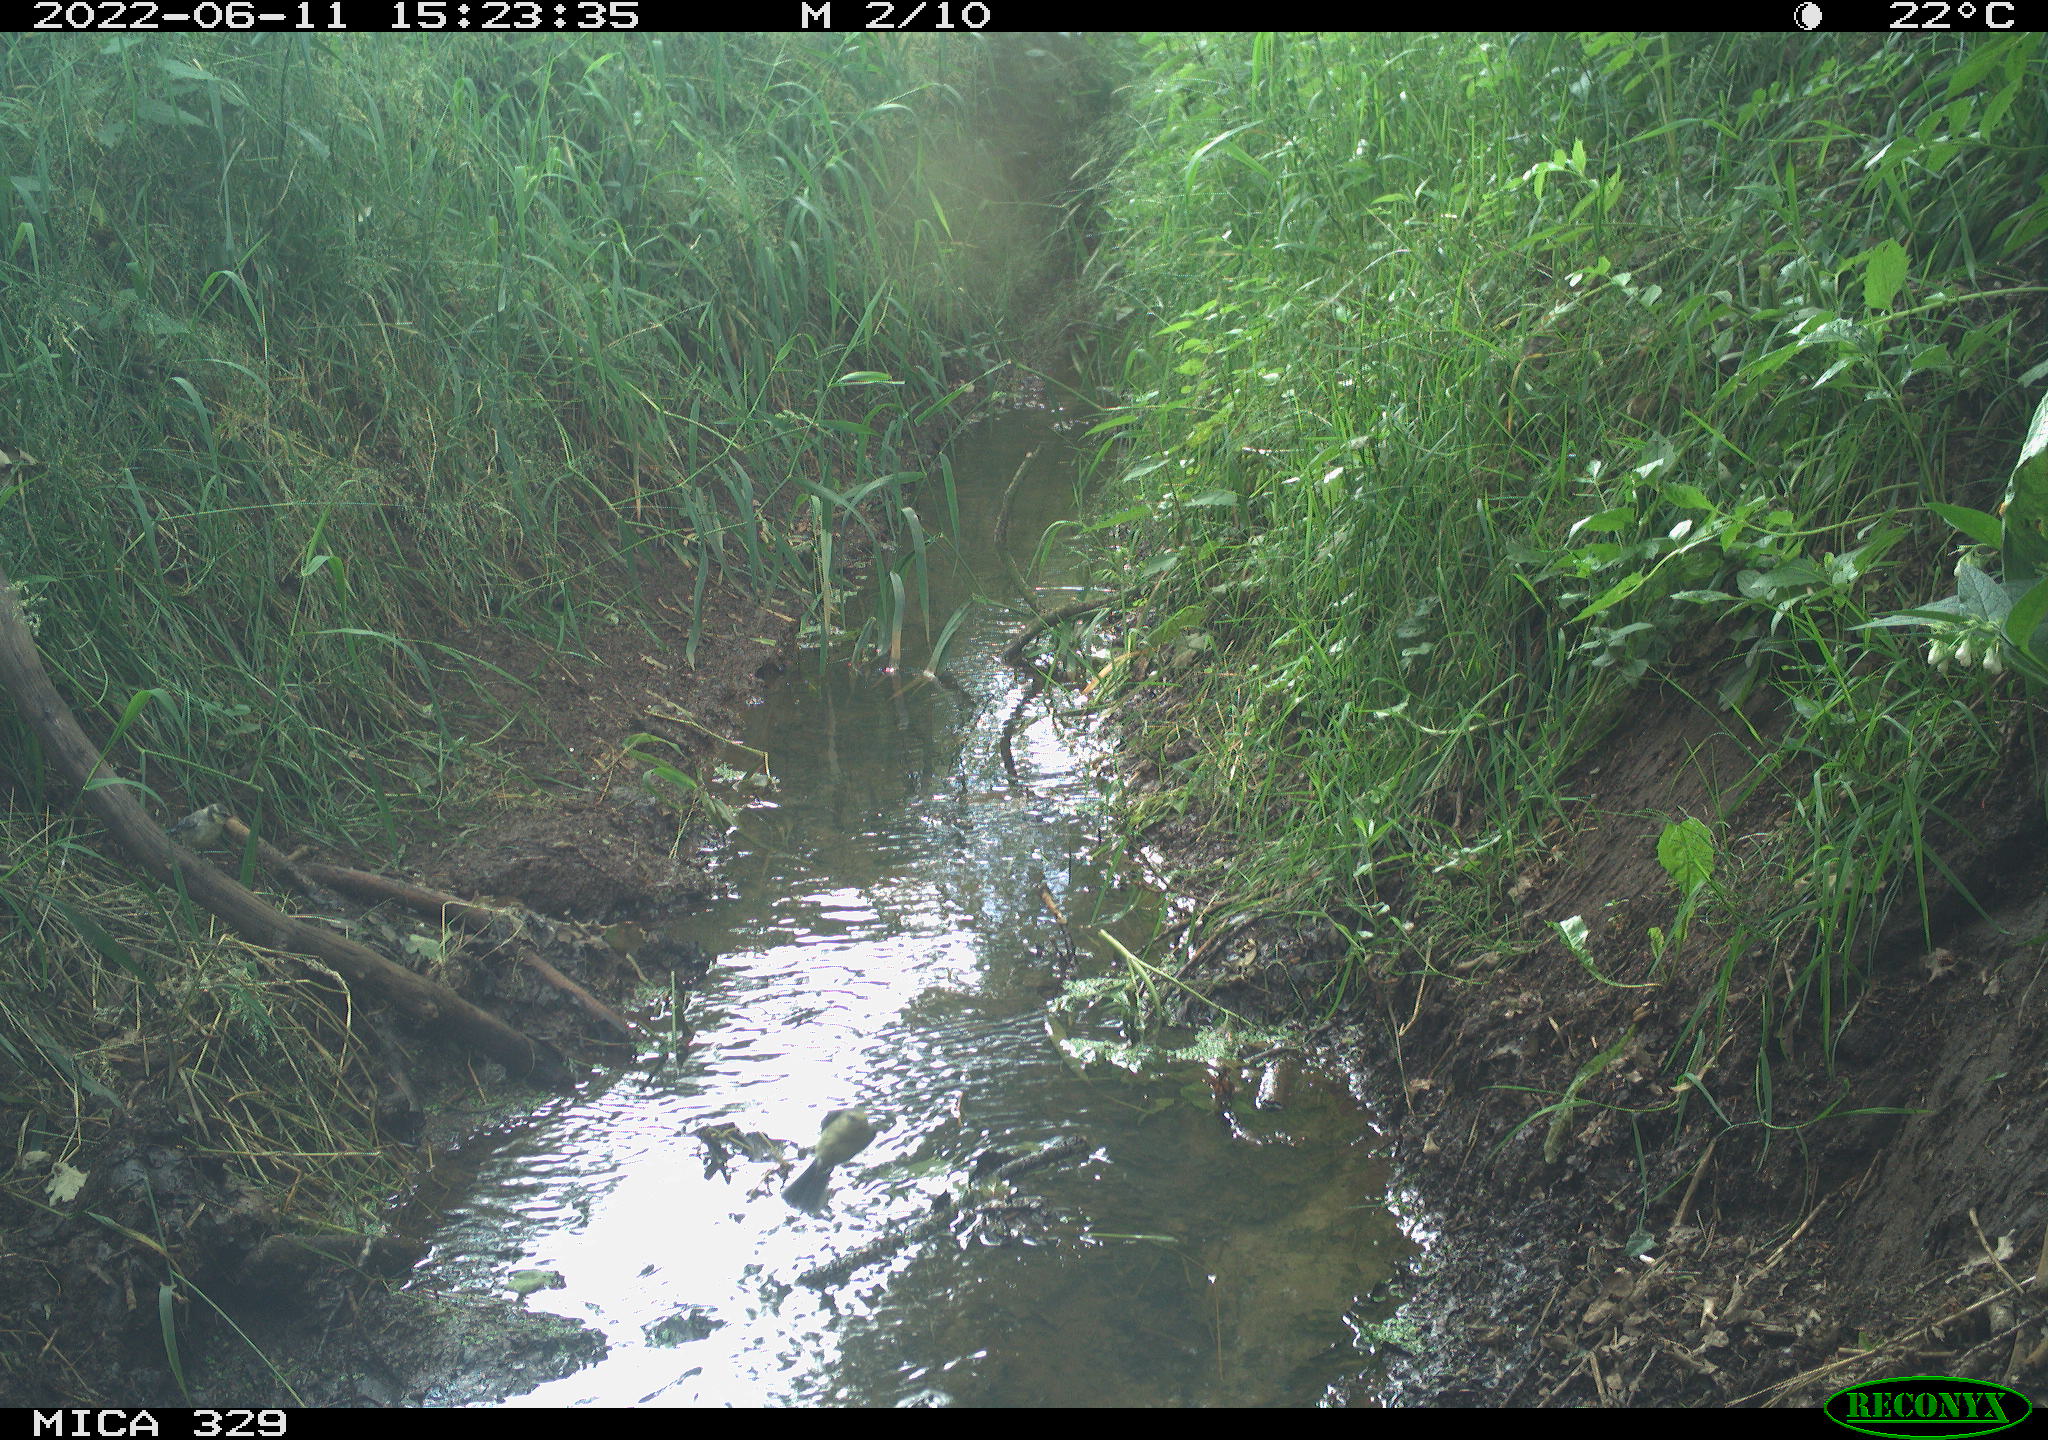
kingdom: Animalia
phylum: Chordata
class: Aves
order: Passeriformes
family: Paridae
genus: Parus
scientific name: Parus major
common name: Great tit
